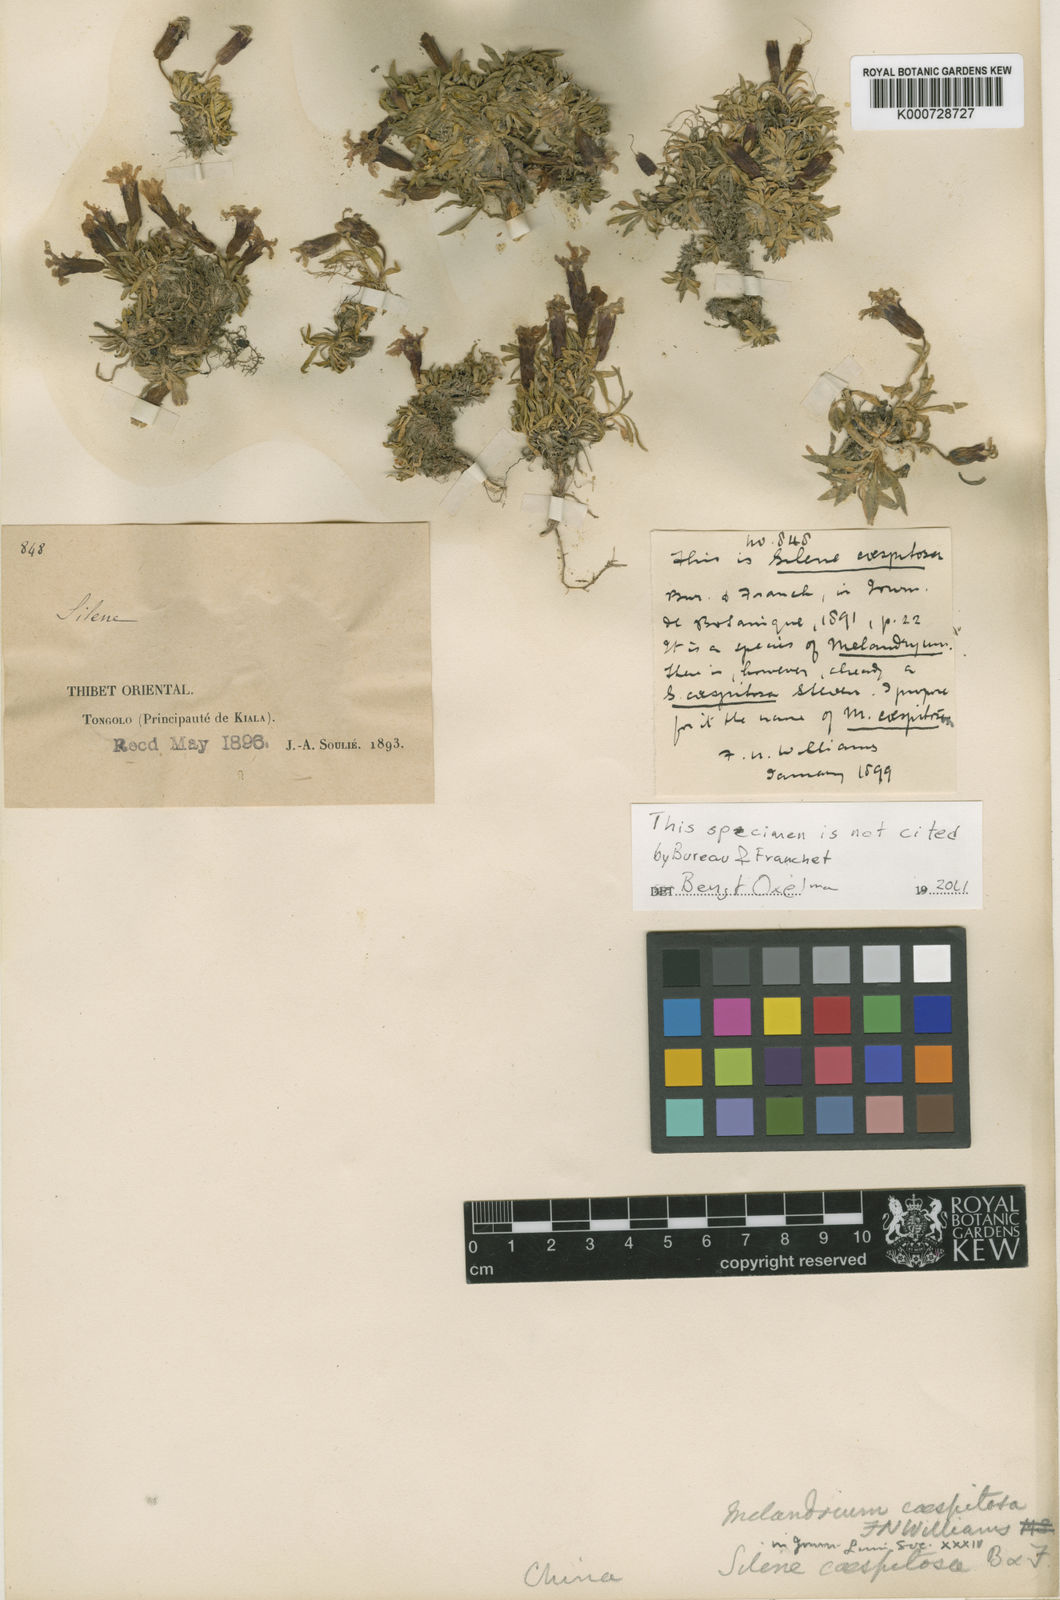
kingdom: Plantae
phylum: Tracheophyta
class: Magnoliopsida
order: Caryophyllales
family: Caryophyllaceae
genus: Silene
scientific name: Silene davidii
